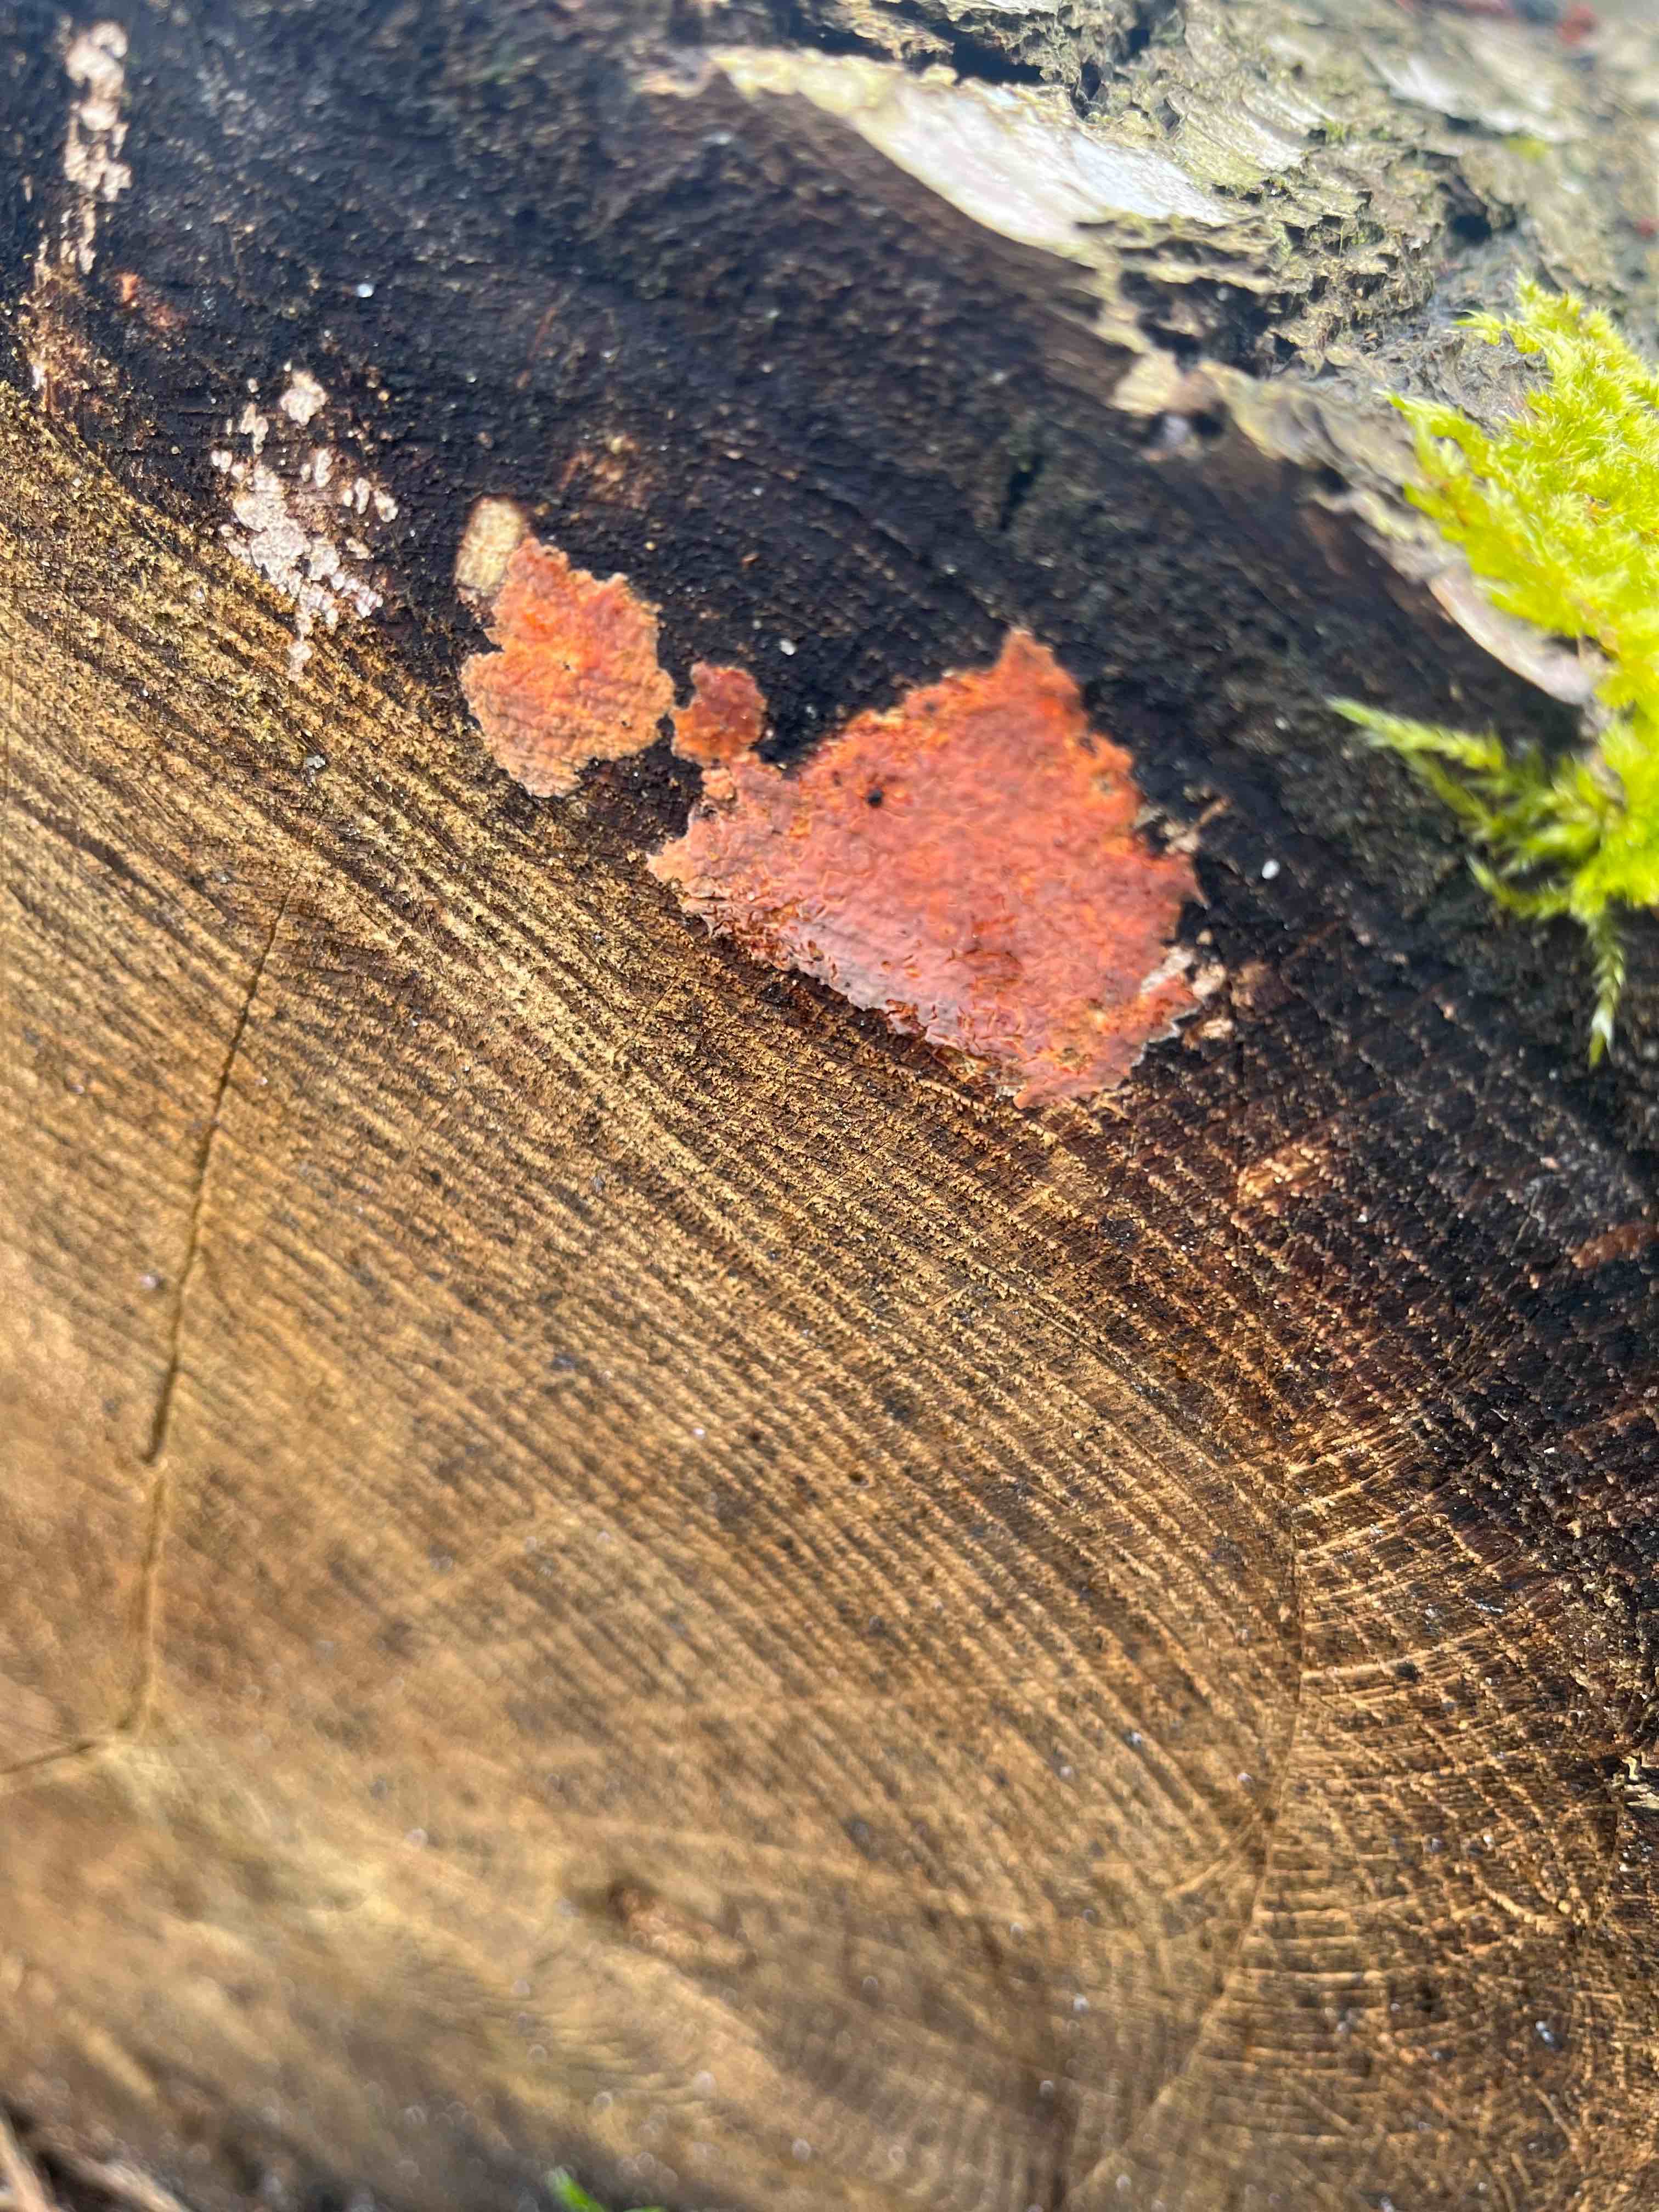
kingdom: Fungi
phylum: Basidiomycota
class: Agaricomycetes
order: Russulales
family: Peniophoraceae
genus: Peniophora
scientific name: Peniophora incarnata
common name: laksefarvet voksskind
